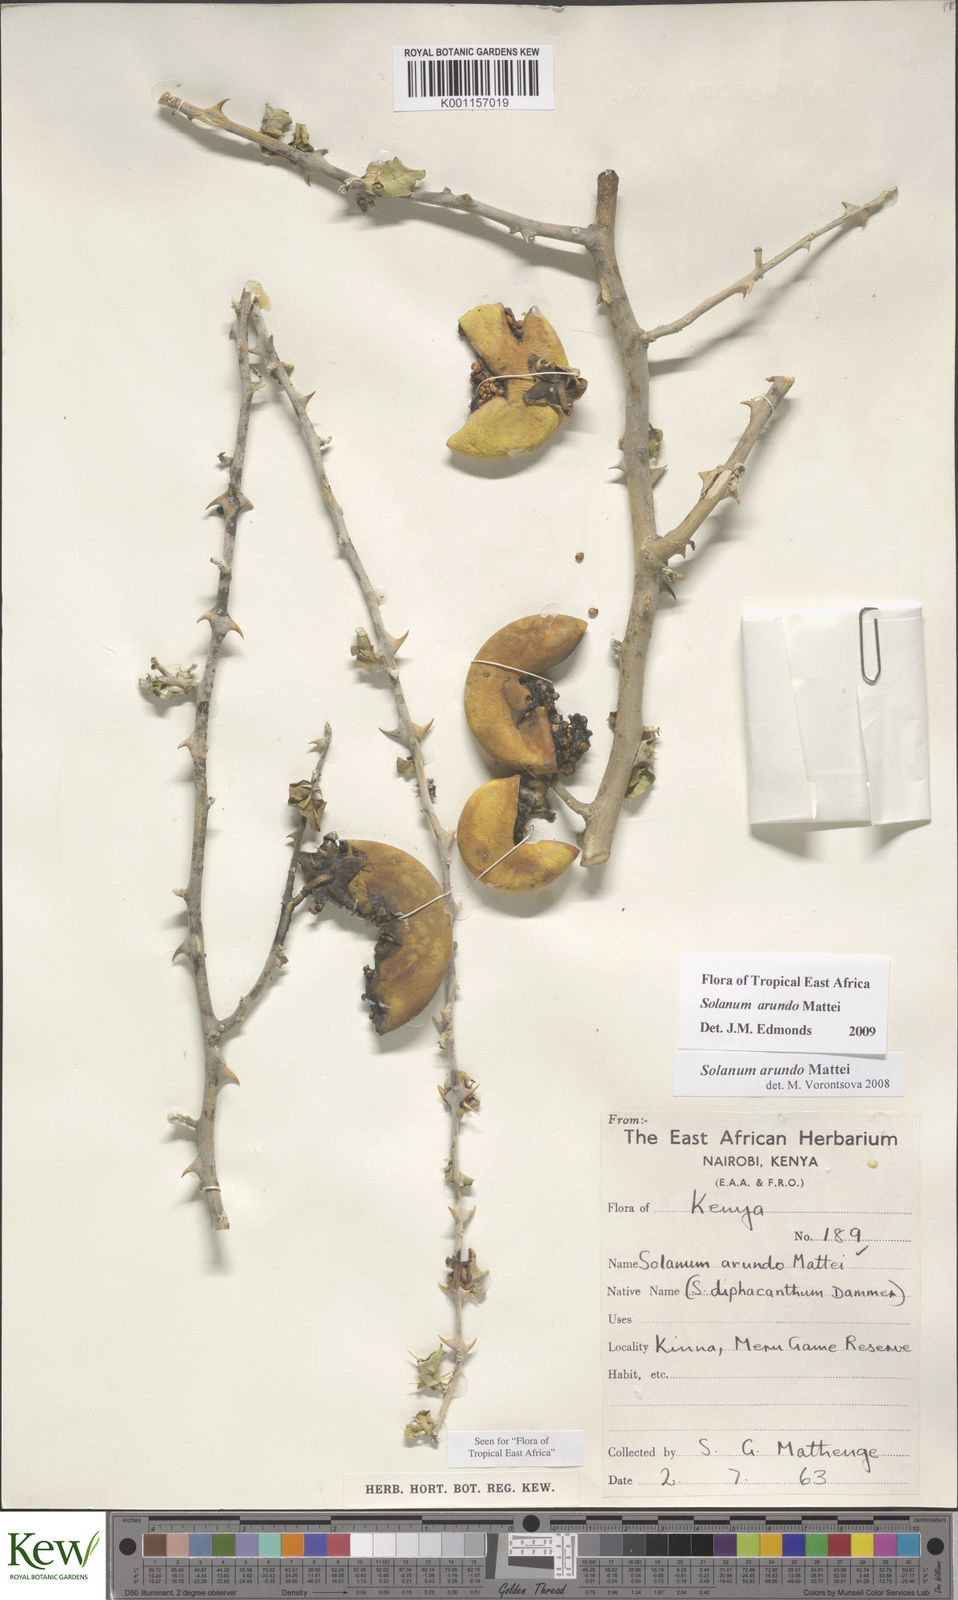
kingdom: Plantae
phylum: Tracheophyta
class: Magnoliopsida
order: Solanales
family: Solanaceae
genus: Solanum
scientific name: Solanum arundo
